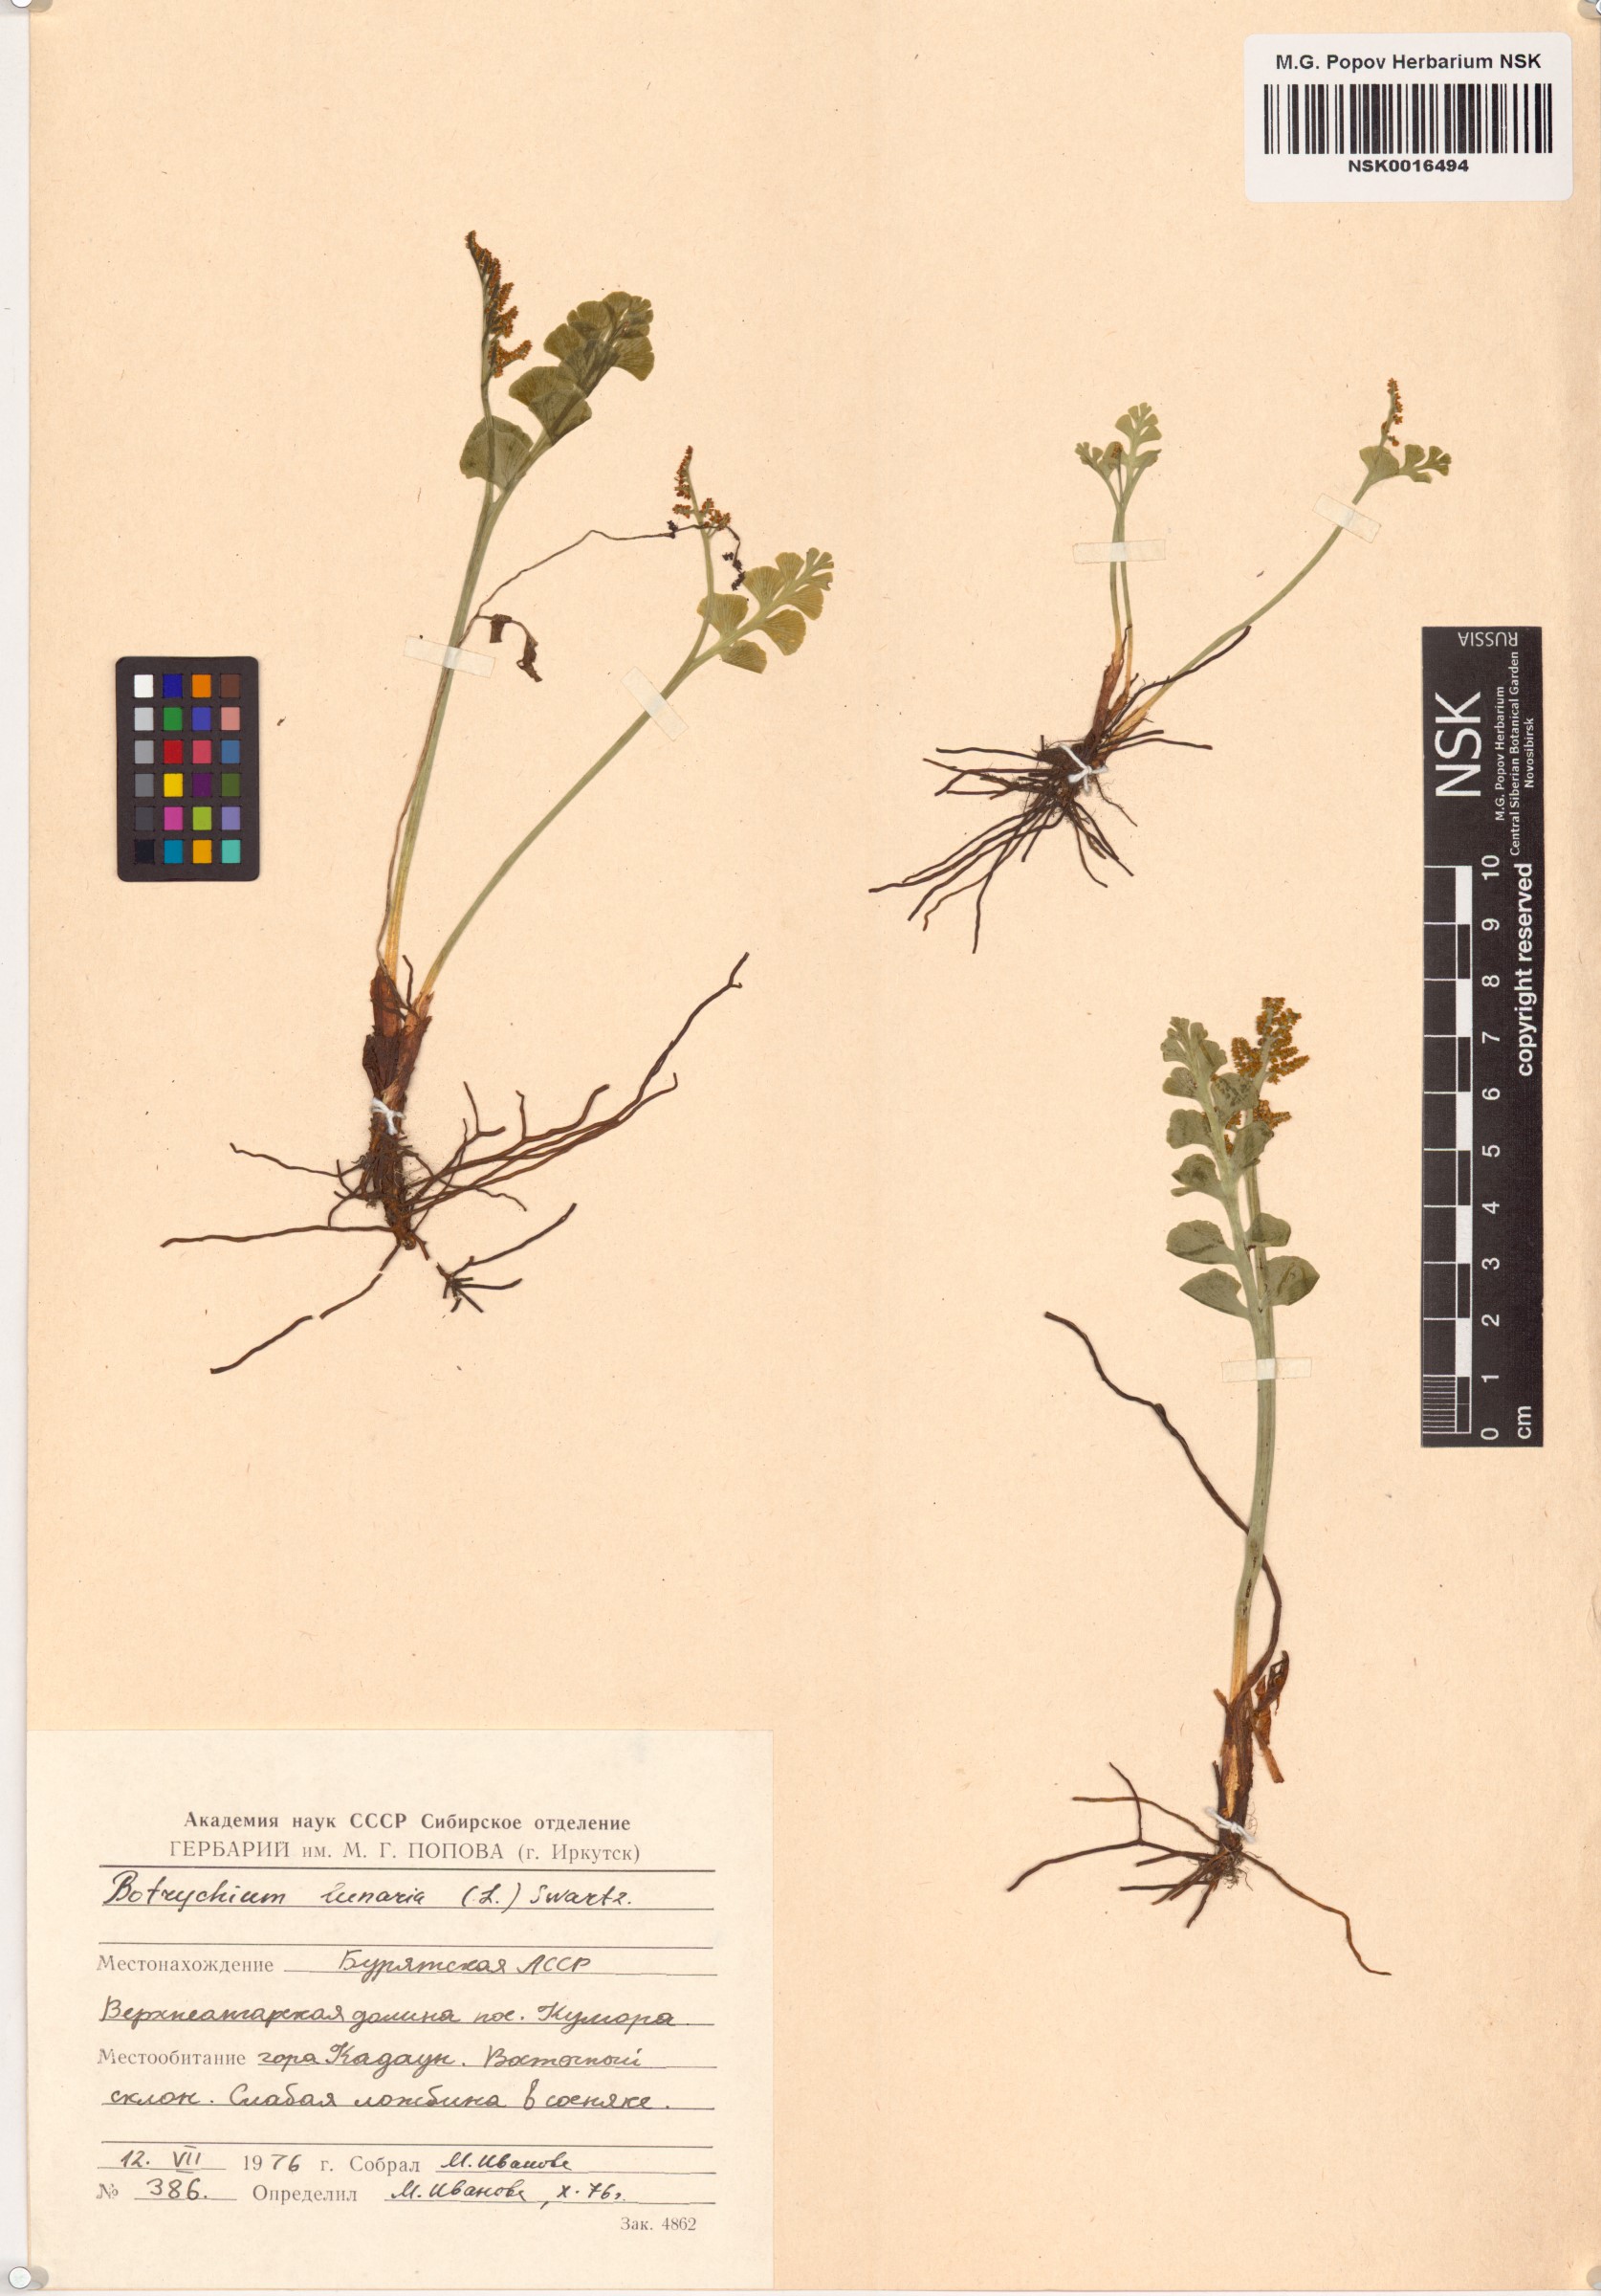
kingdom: Plantae
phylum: Tracheophyta
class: Polypodiopsida
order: Ophioglossales
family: Ophioglossaceae
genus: Botrychium
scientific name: Botrychium lunaria
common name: Moonwort
